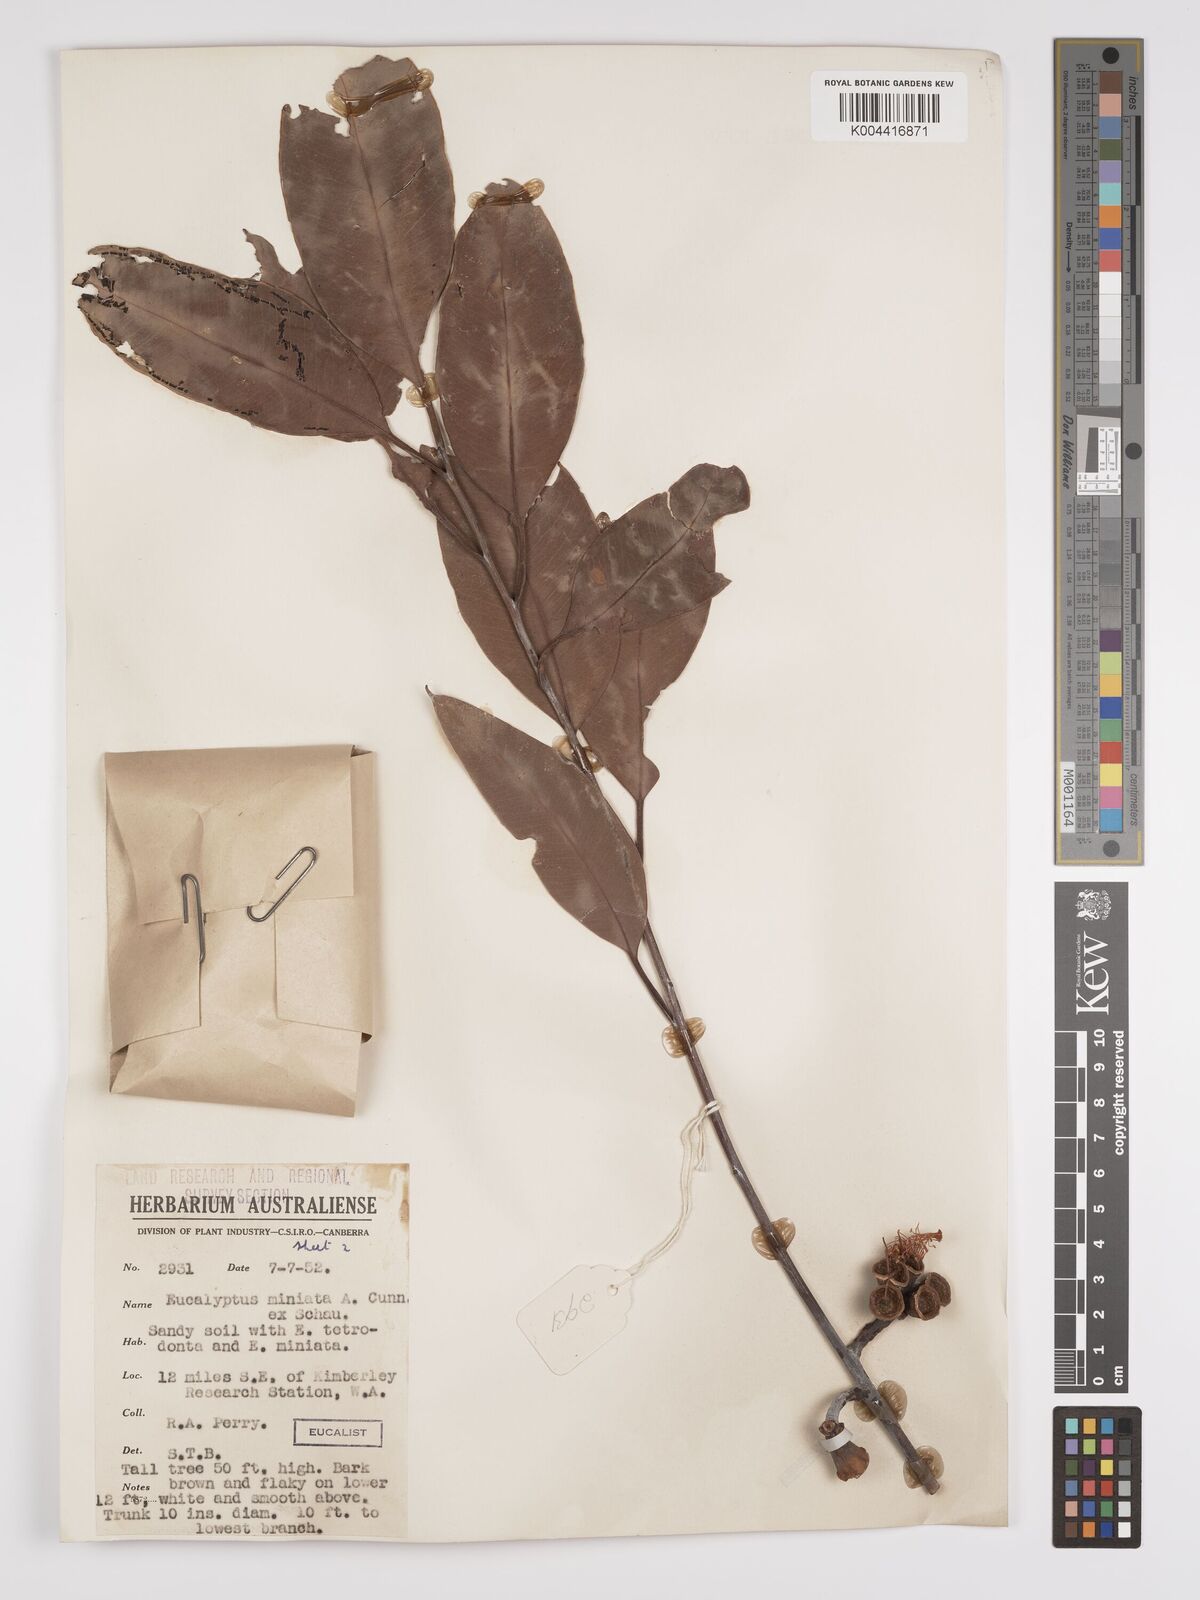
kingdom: Plantae
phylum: Tracheophyta
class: Magnoliopsida
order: Myrtales
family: Myrtaceae
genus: Eucalyptus
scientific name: Eucalyptus miniata
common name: Darwin-woollybutt
